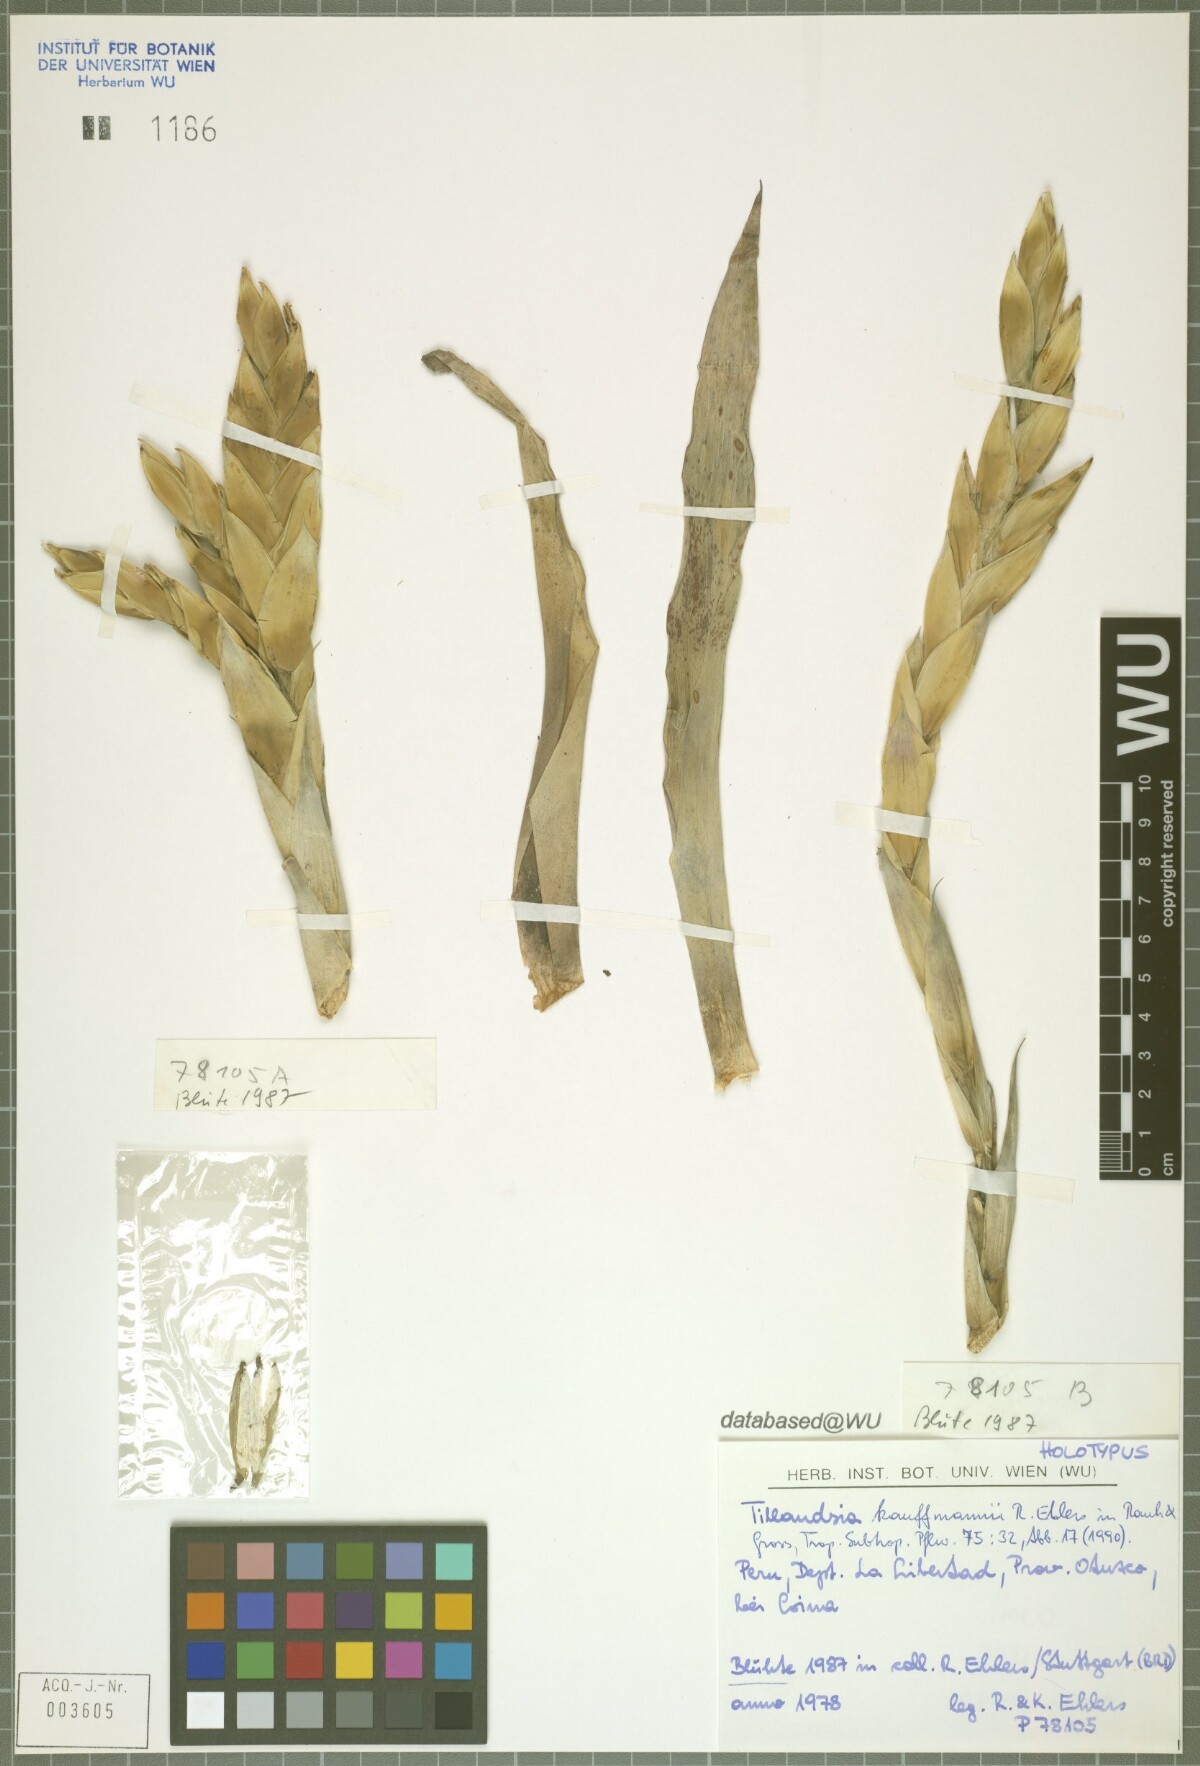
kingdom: Plantae
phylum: Tracheophyta
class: Liliopsida
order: Poales
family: Bromeliaceae
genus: Tillandsia
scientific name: Tillandsia kauffmannii
